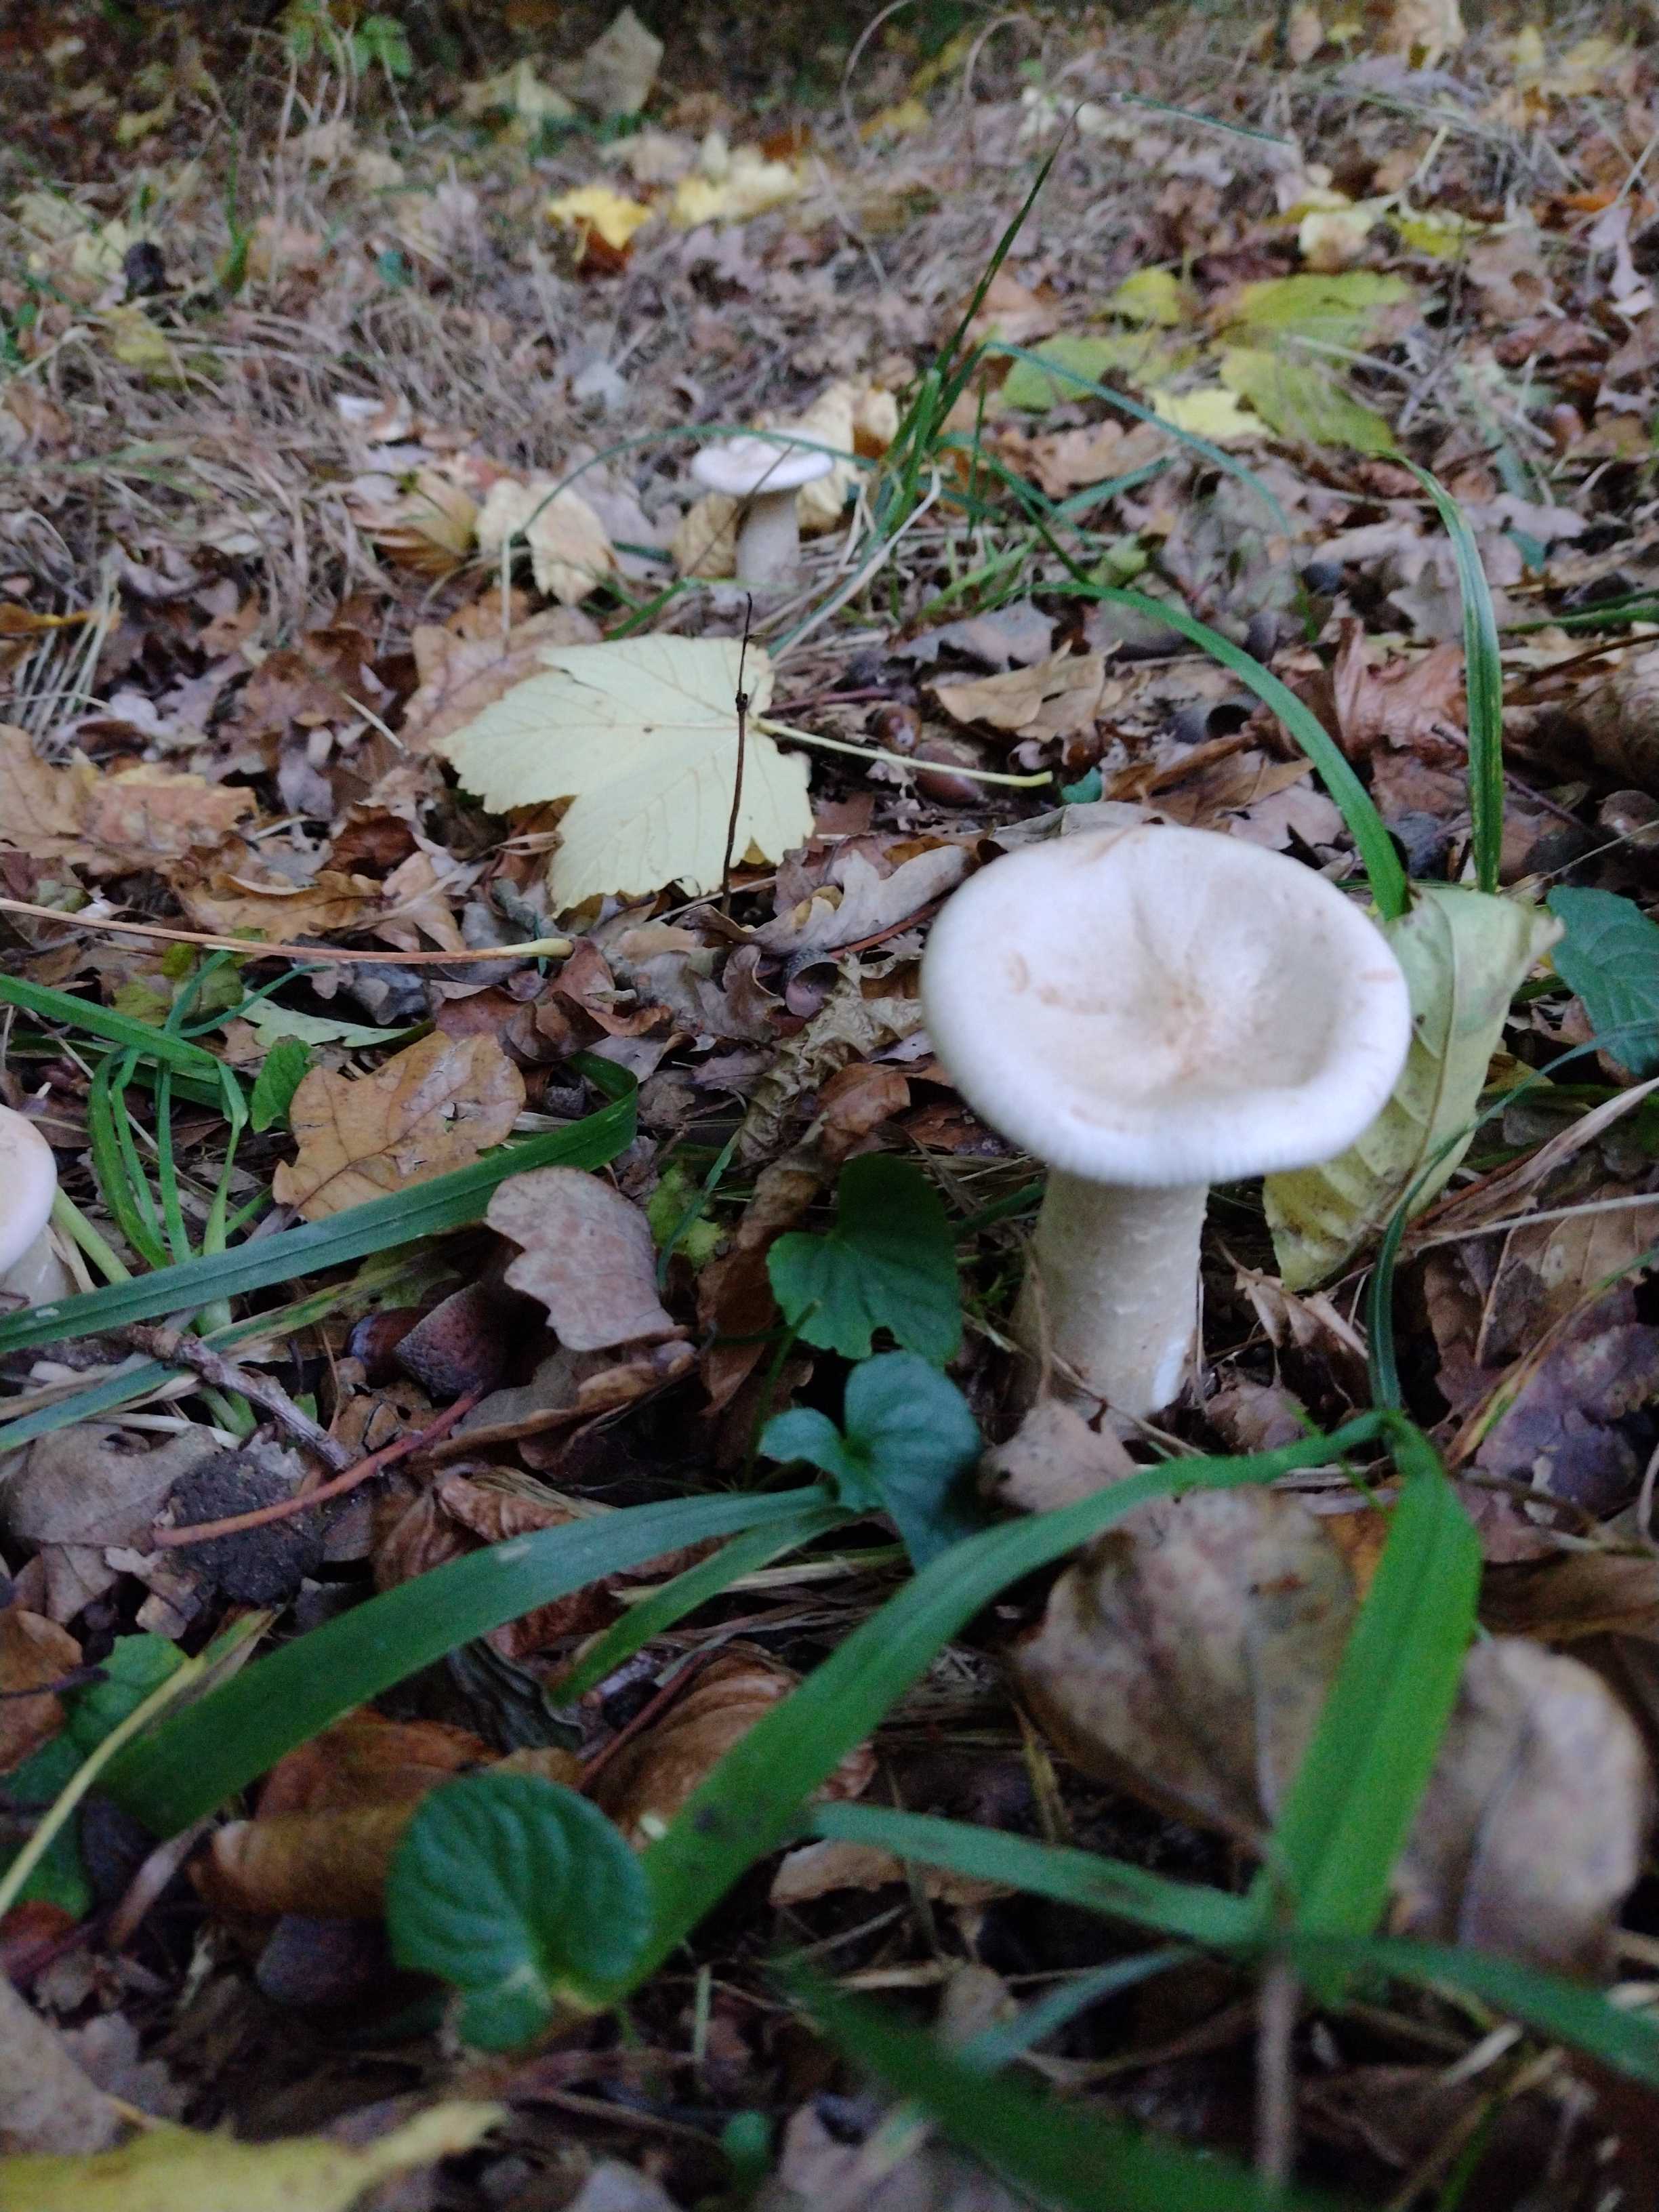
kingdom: Fungi
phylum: Basidiomycota
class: Agaricomycetes
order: Agaricales
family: Tricholomataceae
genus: Infundibulicybe
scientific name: Infundibulicybe geotropa
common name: stor tragthat
